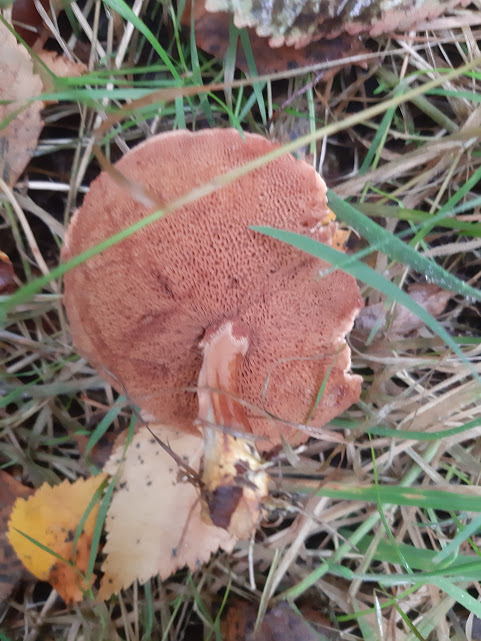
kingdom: Fungi
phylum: Basidiomycota
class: Agaricomycetes
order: Boletales
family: Boletaceae
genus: Chalciporus
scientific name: Chalciporus piperatus
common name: peberrørhat
